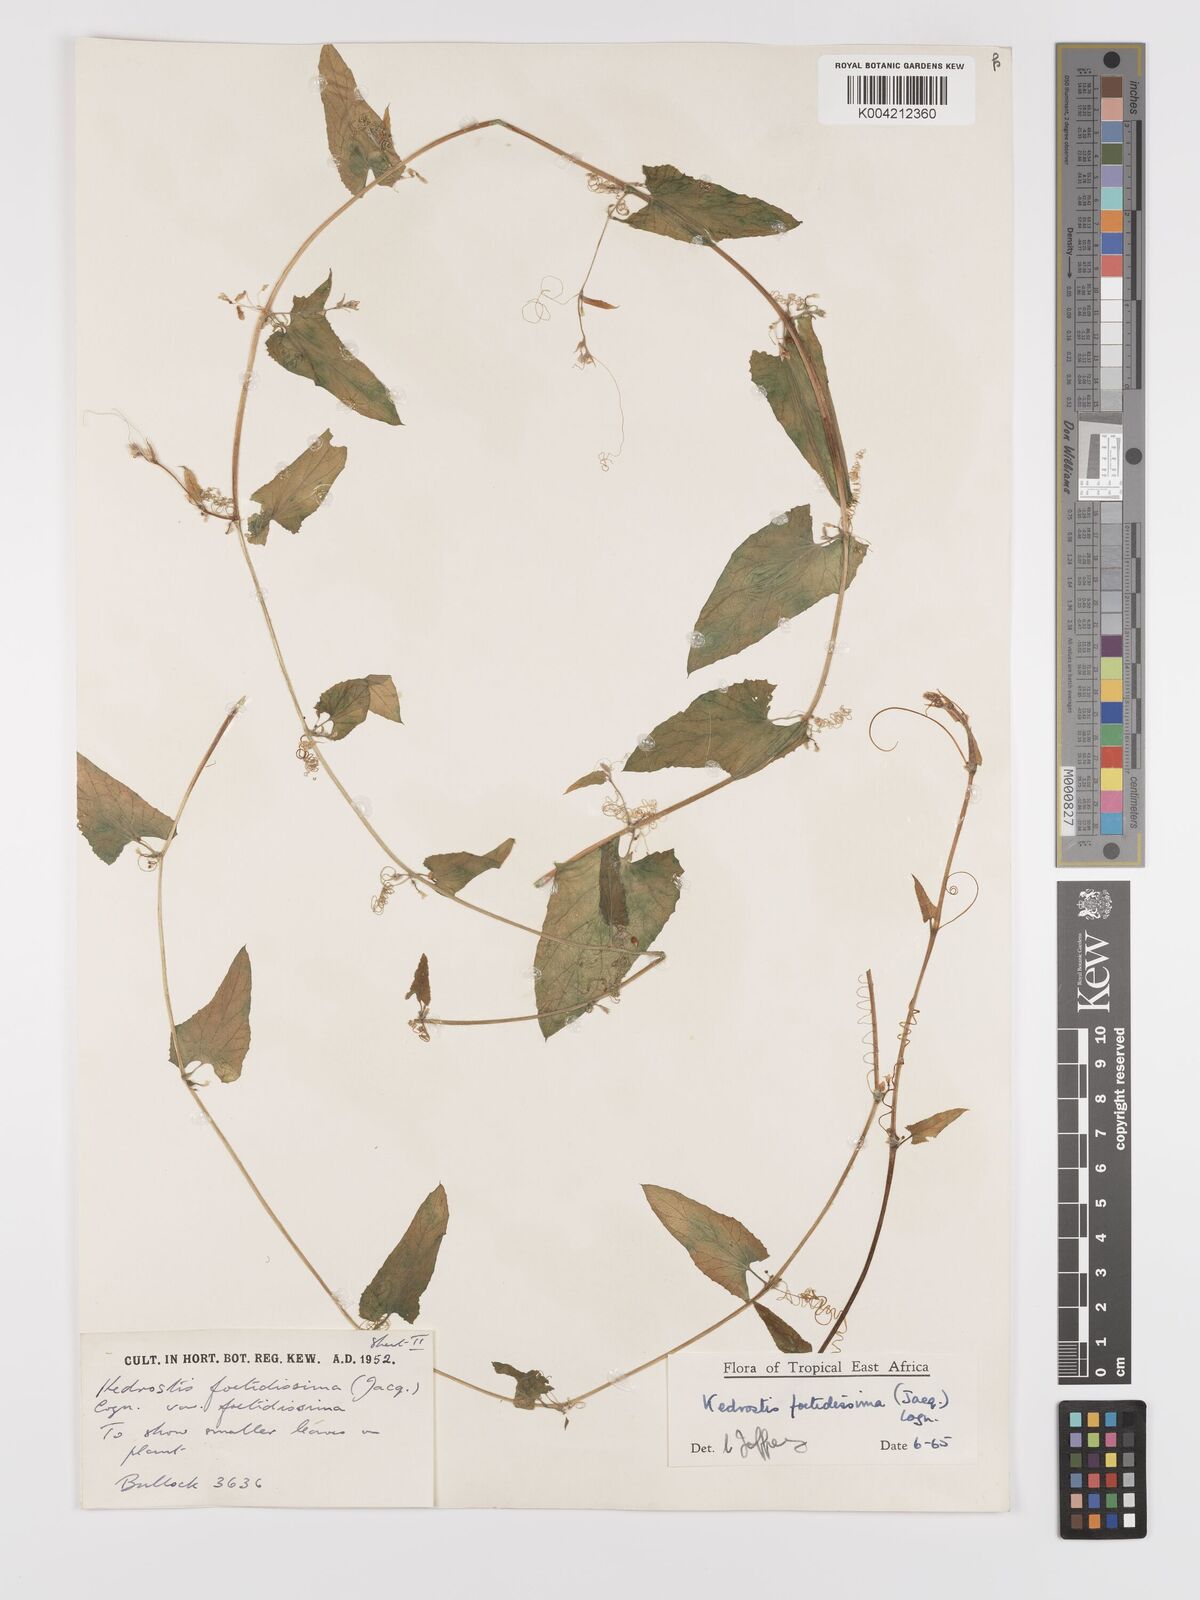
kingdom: Plantae
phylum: Tracheophyta
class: Magnoliopsida
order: Cucurbitales
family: Cucurbitaceae
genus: Kedrostis
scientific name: Kedrostis foetidissima
